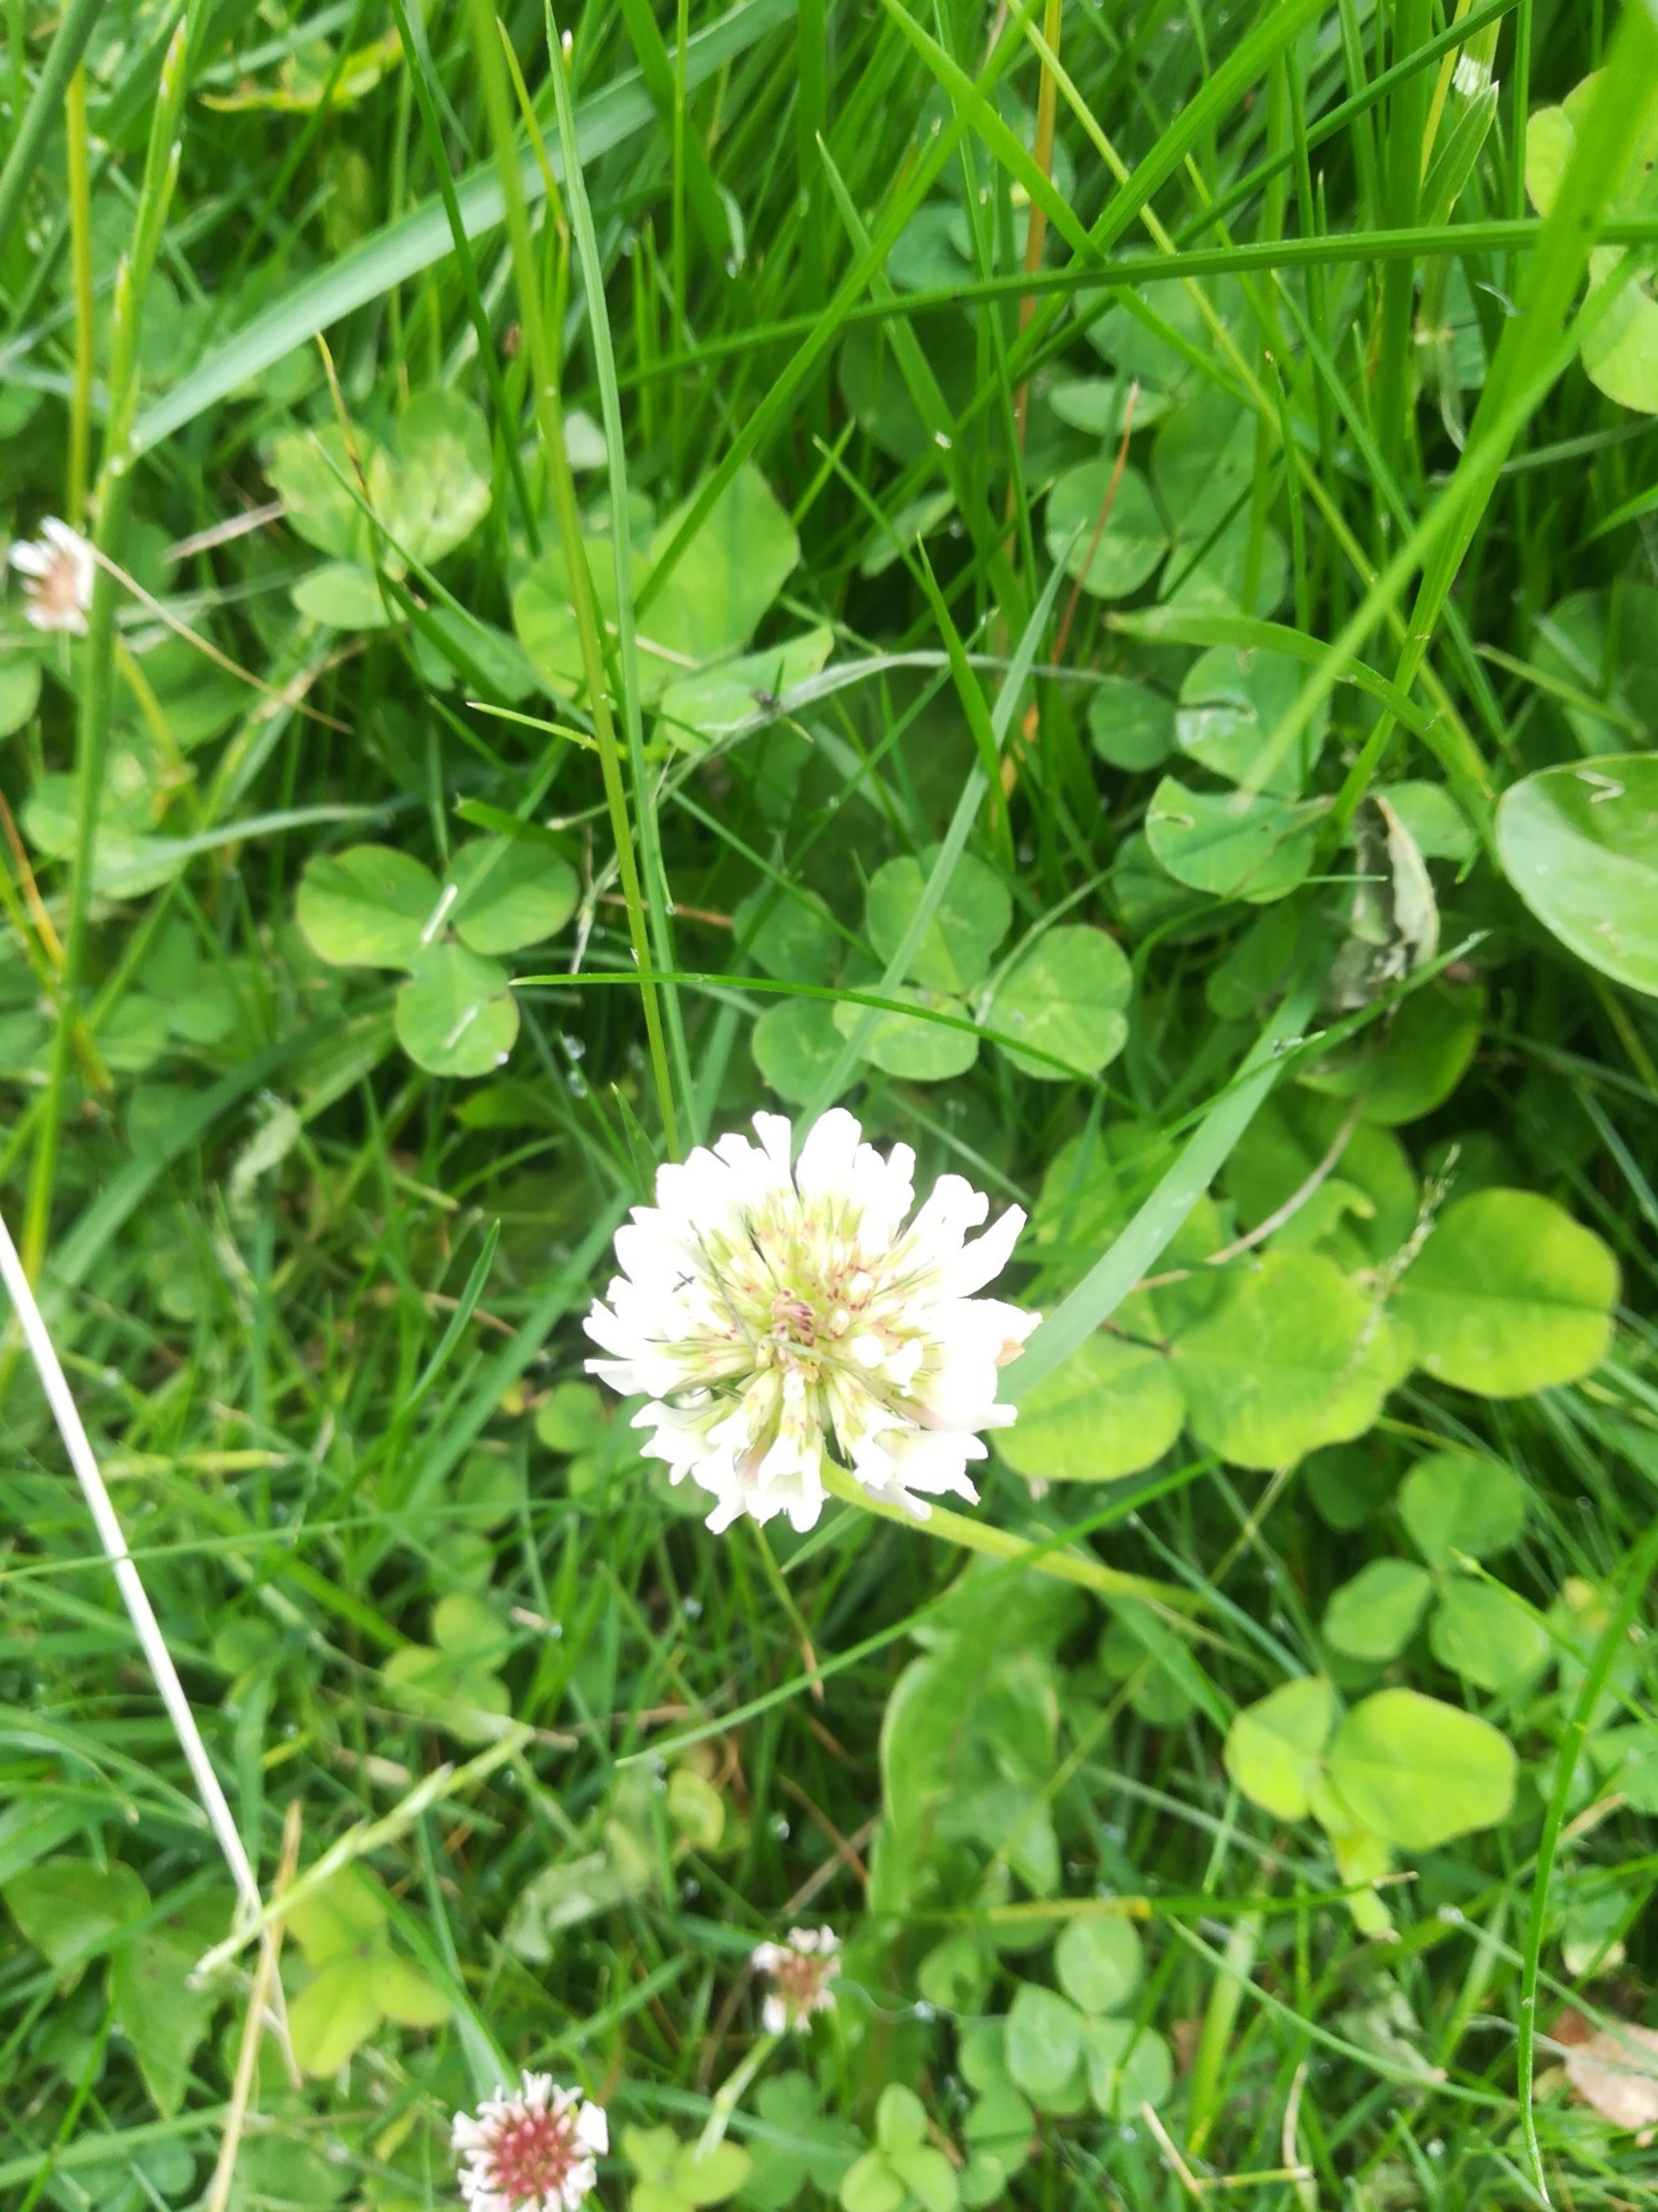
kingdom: Plantae
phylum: Tracheophyta
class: Magnoliopsida
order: Fabales
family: Fabaceae
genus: Trifolium
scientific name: Trifolium repens
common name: Hvid-kløver
